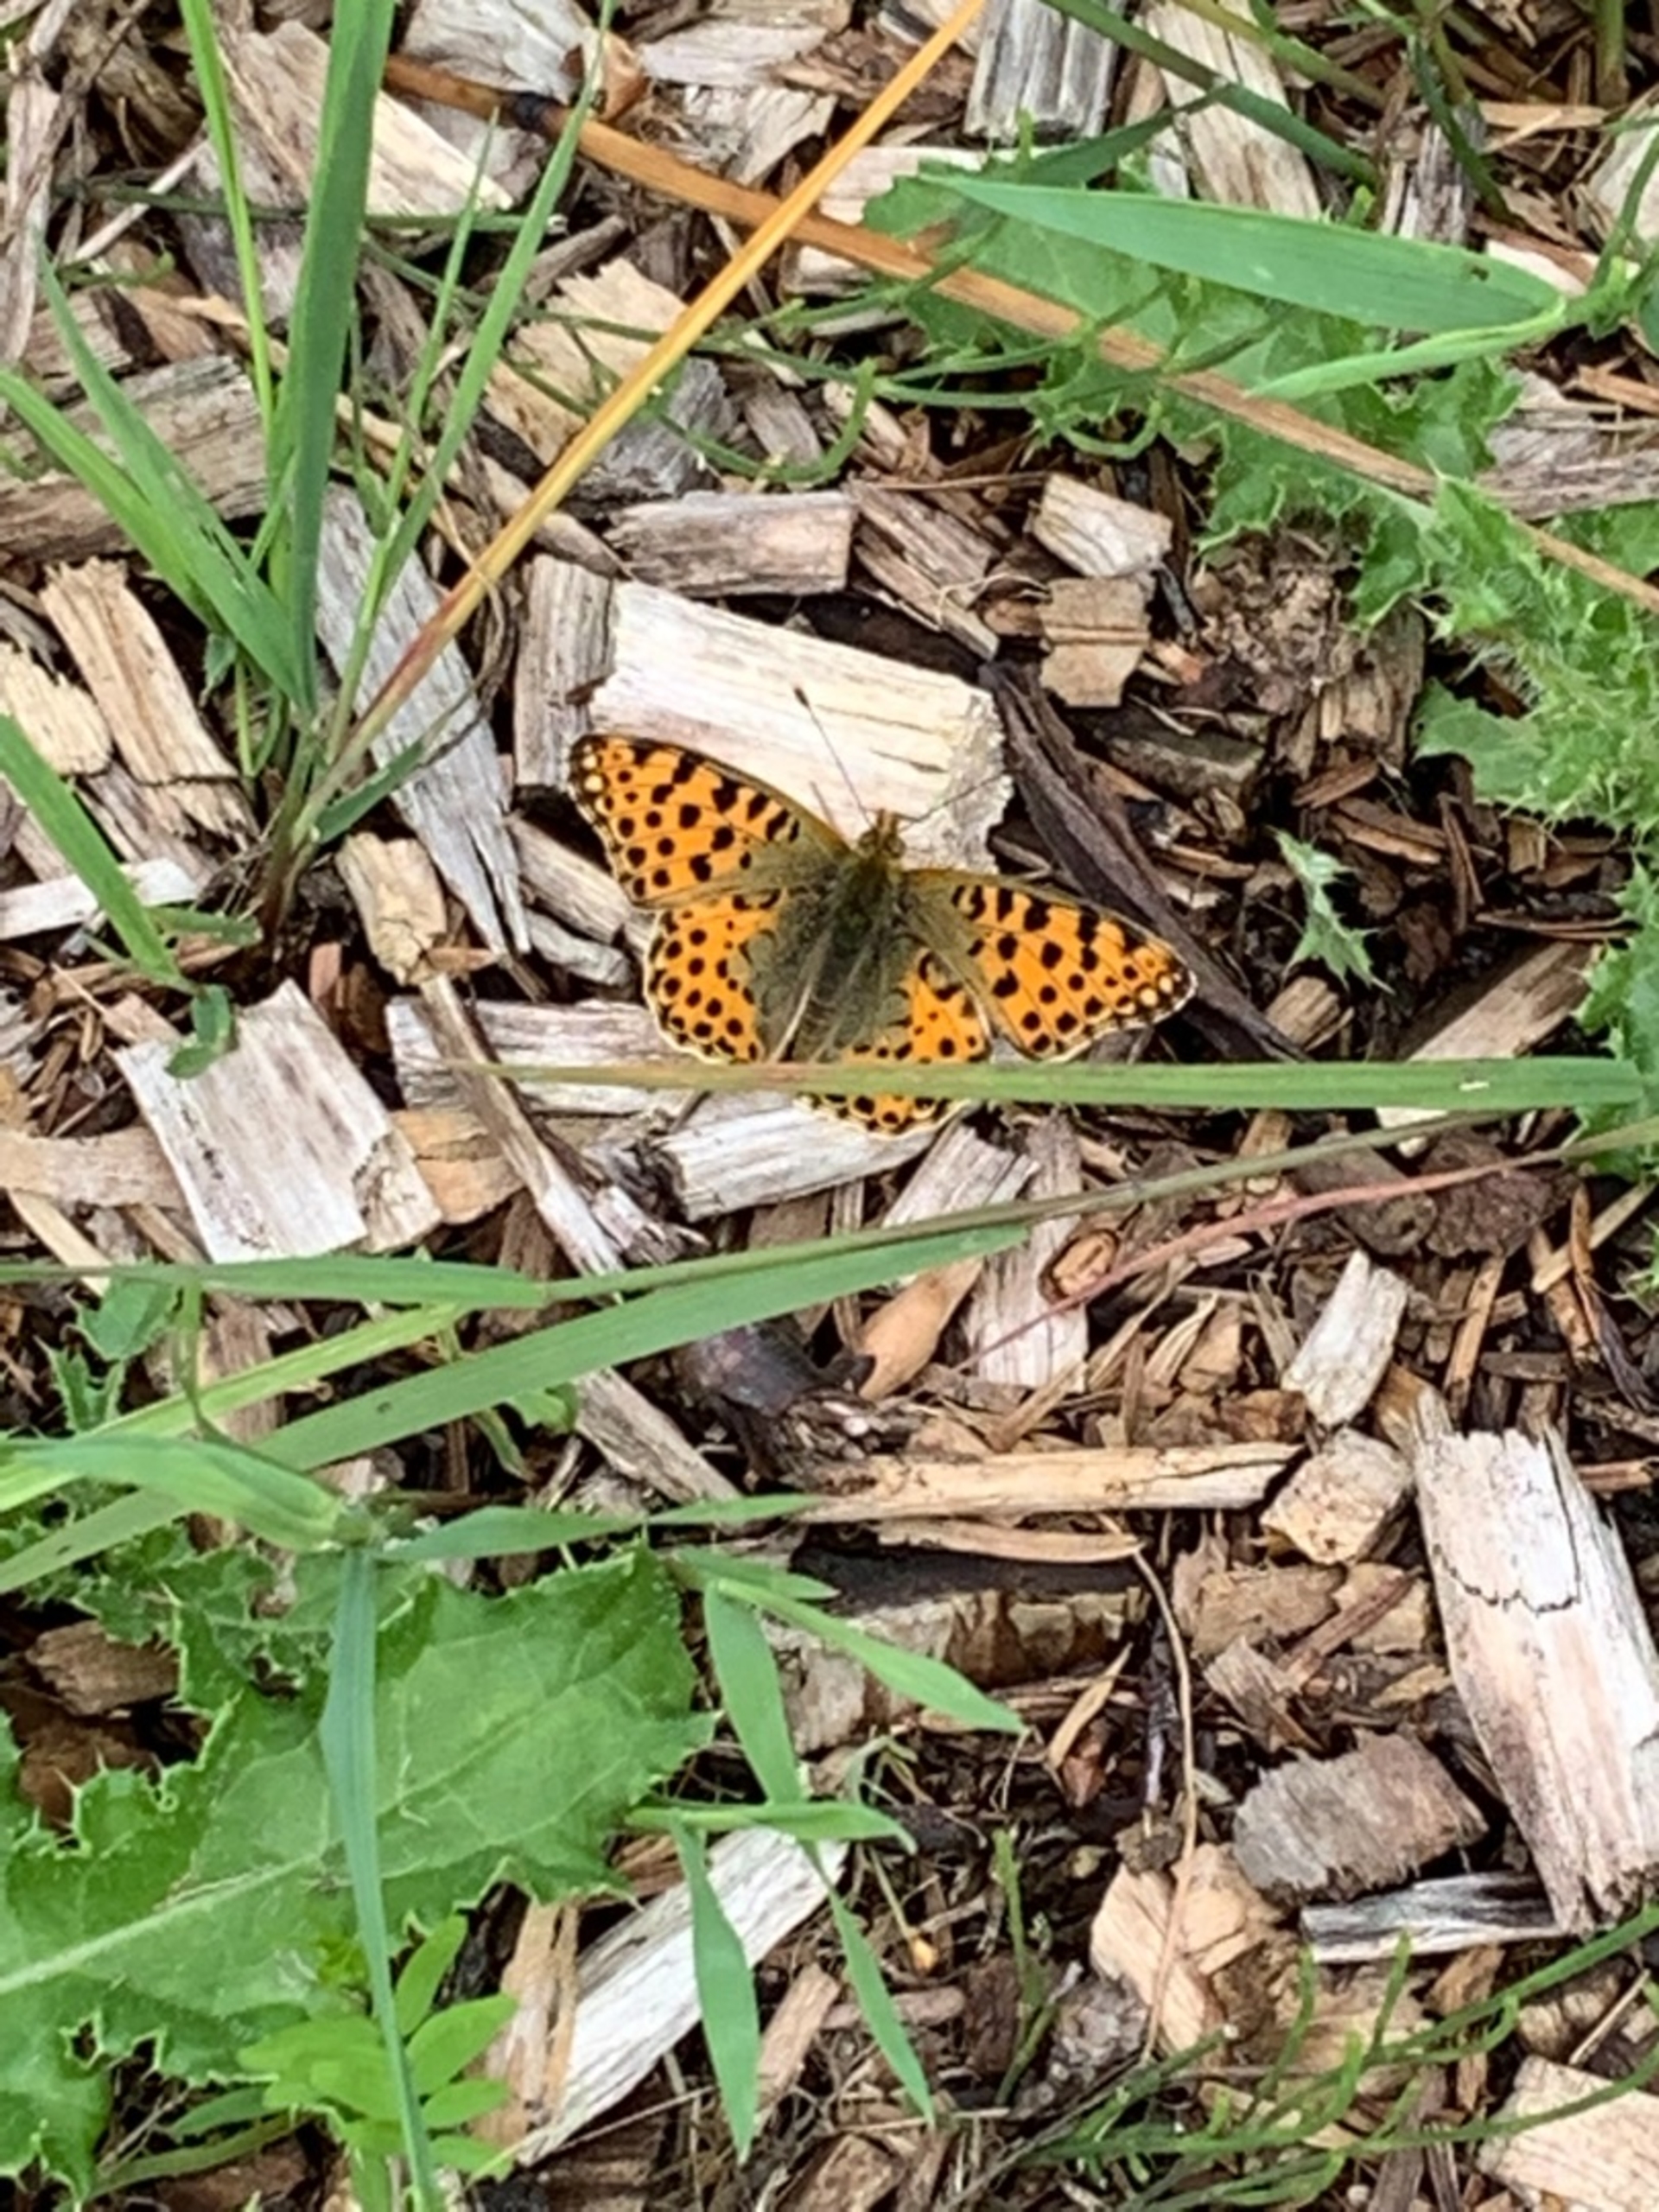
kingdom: Animalia
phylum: Arthropoda
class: Insecta
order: Lepidoptera
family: Nymphalidae
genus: Issoria
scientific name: Issoria lathonia
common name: Storplettet perlemorsommerfugl
